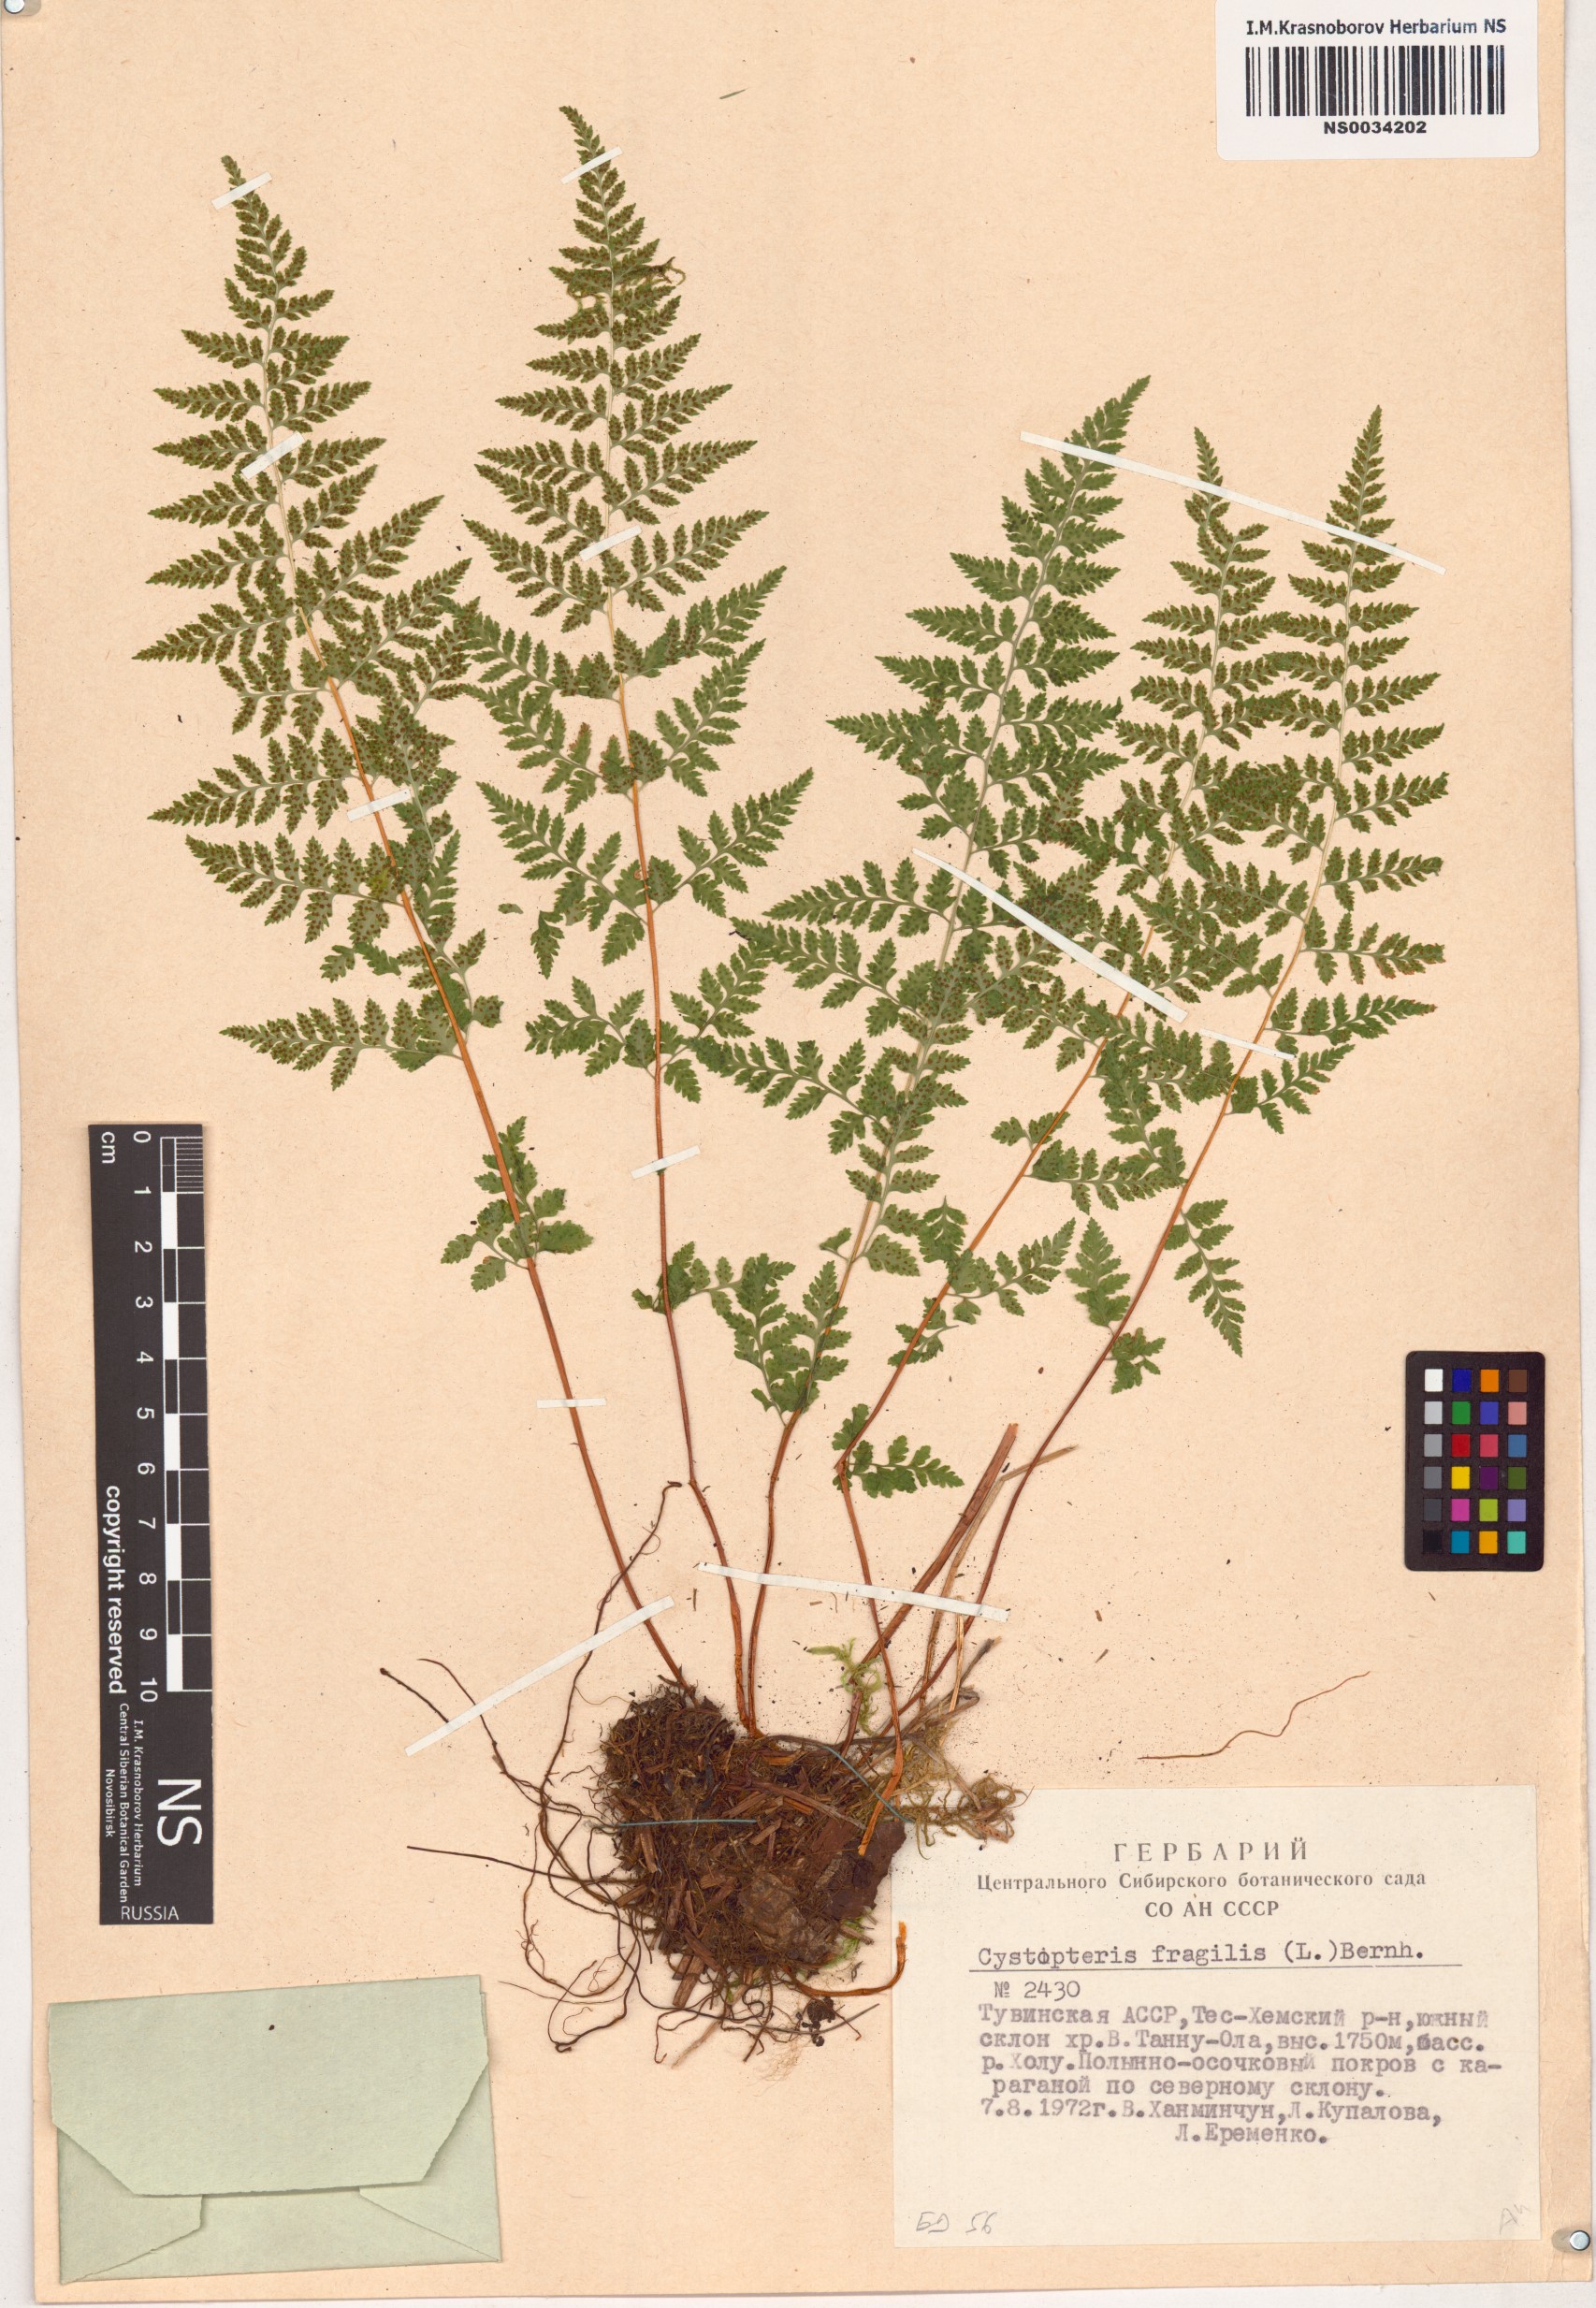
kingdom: Plantae
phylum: Tracheophyta
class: Polypodiopsida
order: Polypodiales
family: Cystopteridaceae
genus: Cystopteris
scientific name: Cystopteris fragilis
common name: Brittle bladder fern
